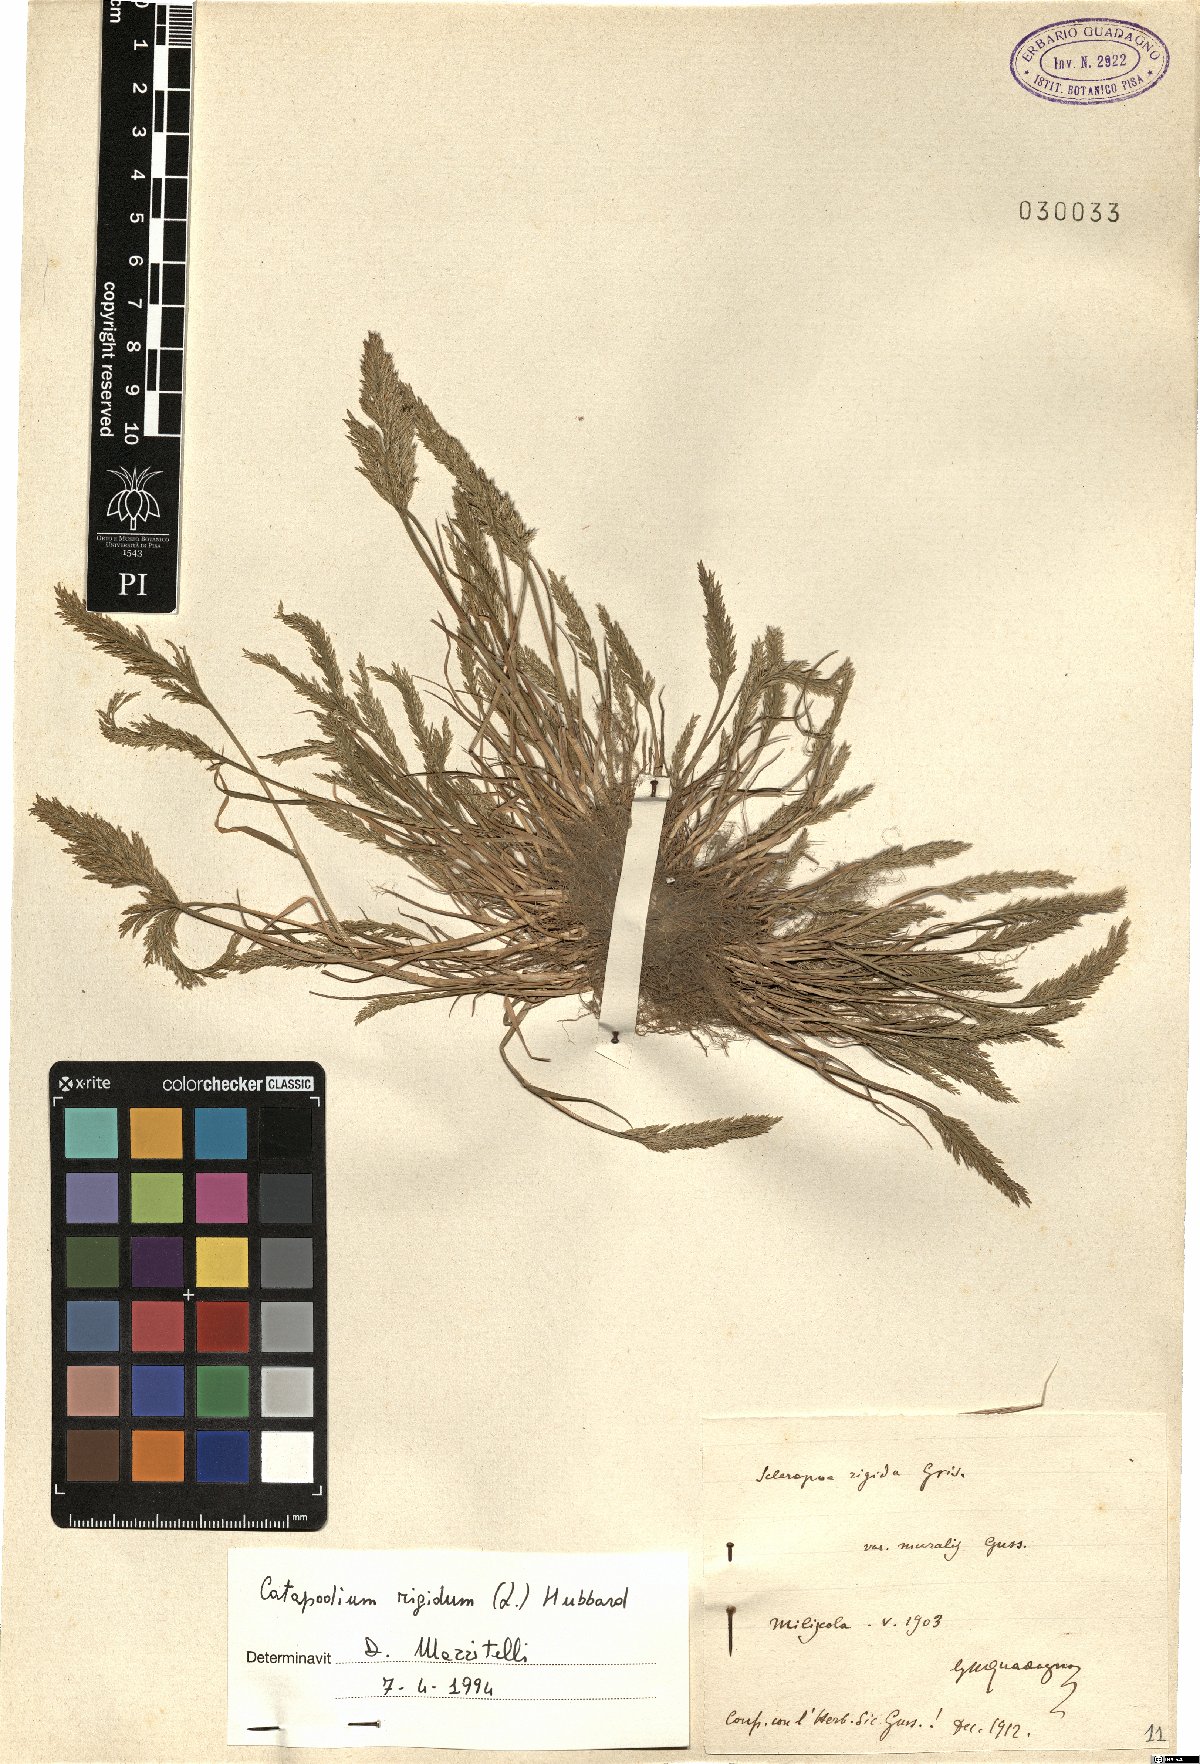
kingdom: Plantae
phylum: Tracheophyta
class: Liliopsida
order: Poales
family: Poaceae
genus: Catapodium
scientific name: Catapodium rigidum
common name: Fern-grass
